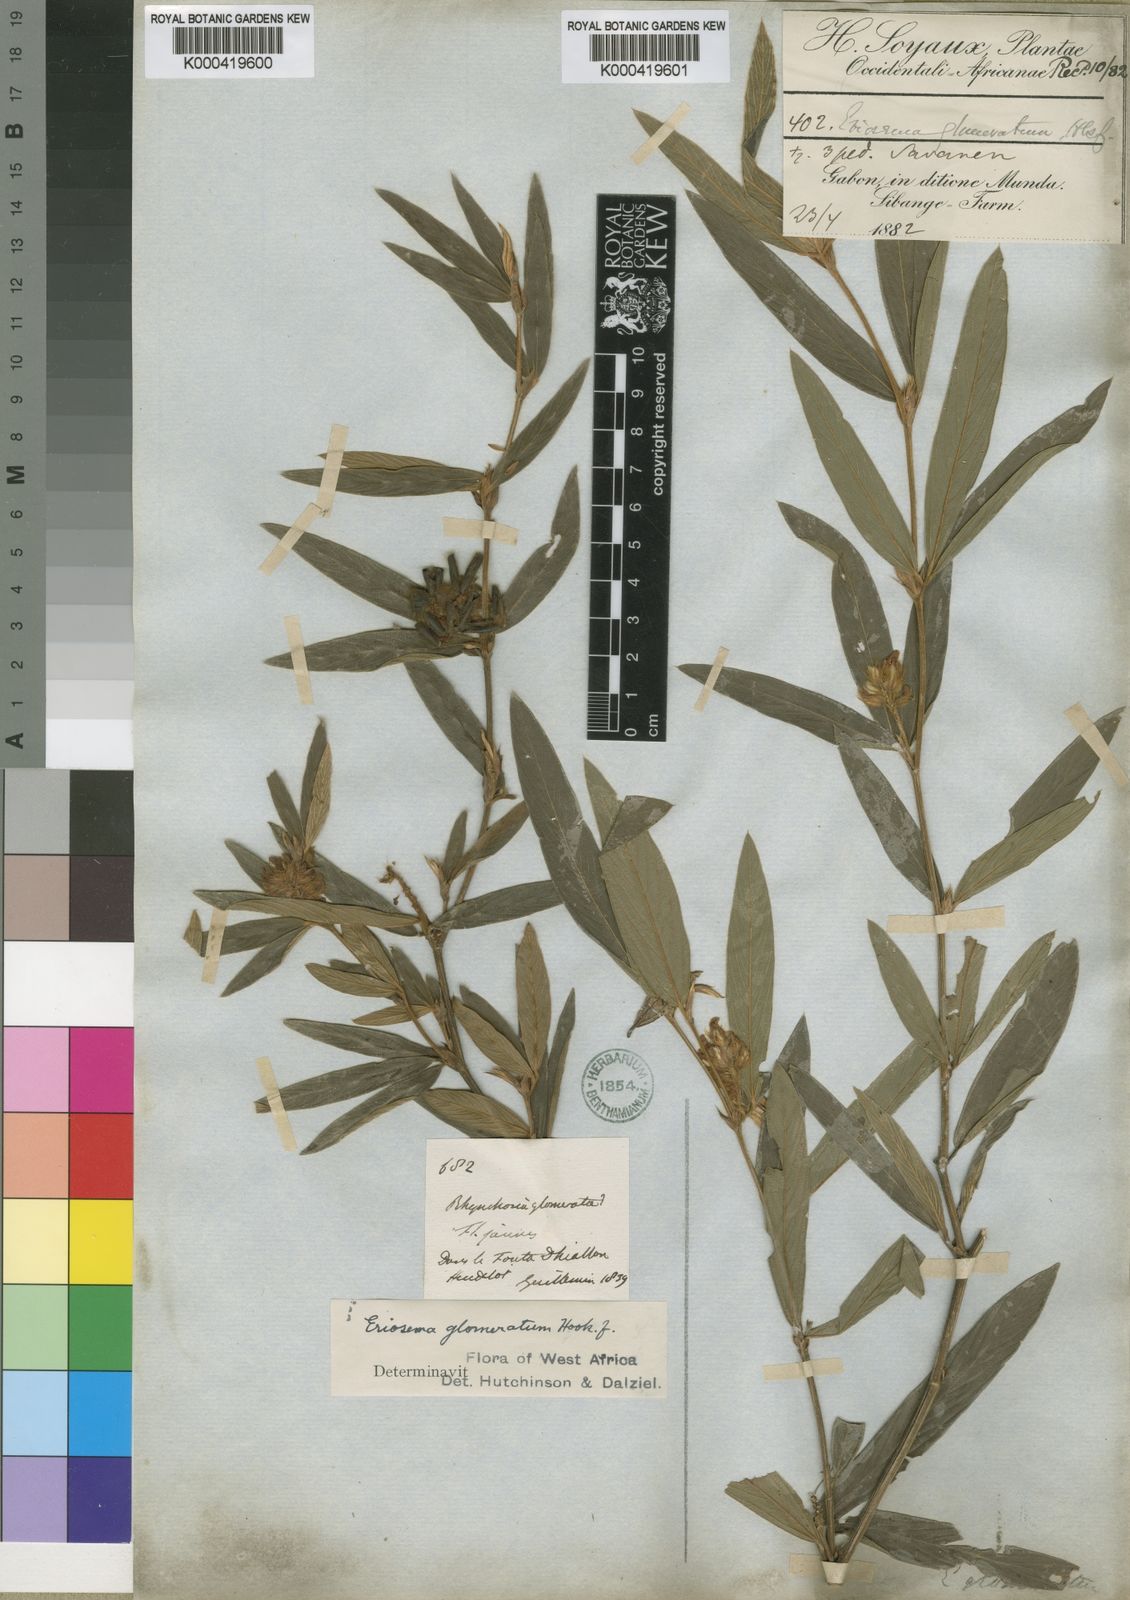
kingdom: Plantae
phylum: Tracheophyta
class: Magnoliopsida
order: Fabales
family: Fabaceae
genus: Eriosema
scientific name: Eriosema laurentii
